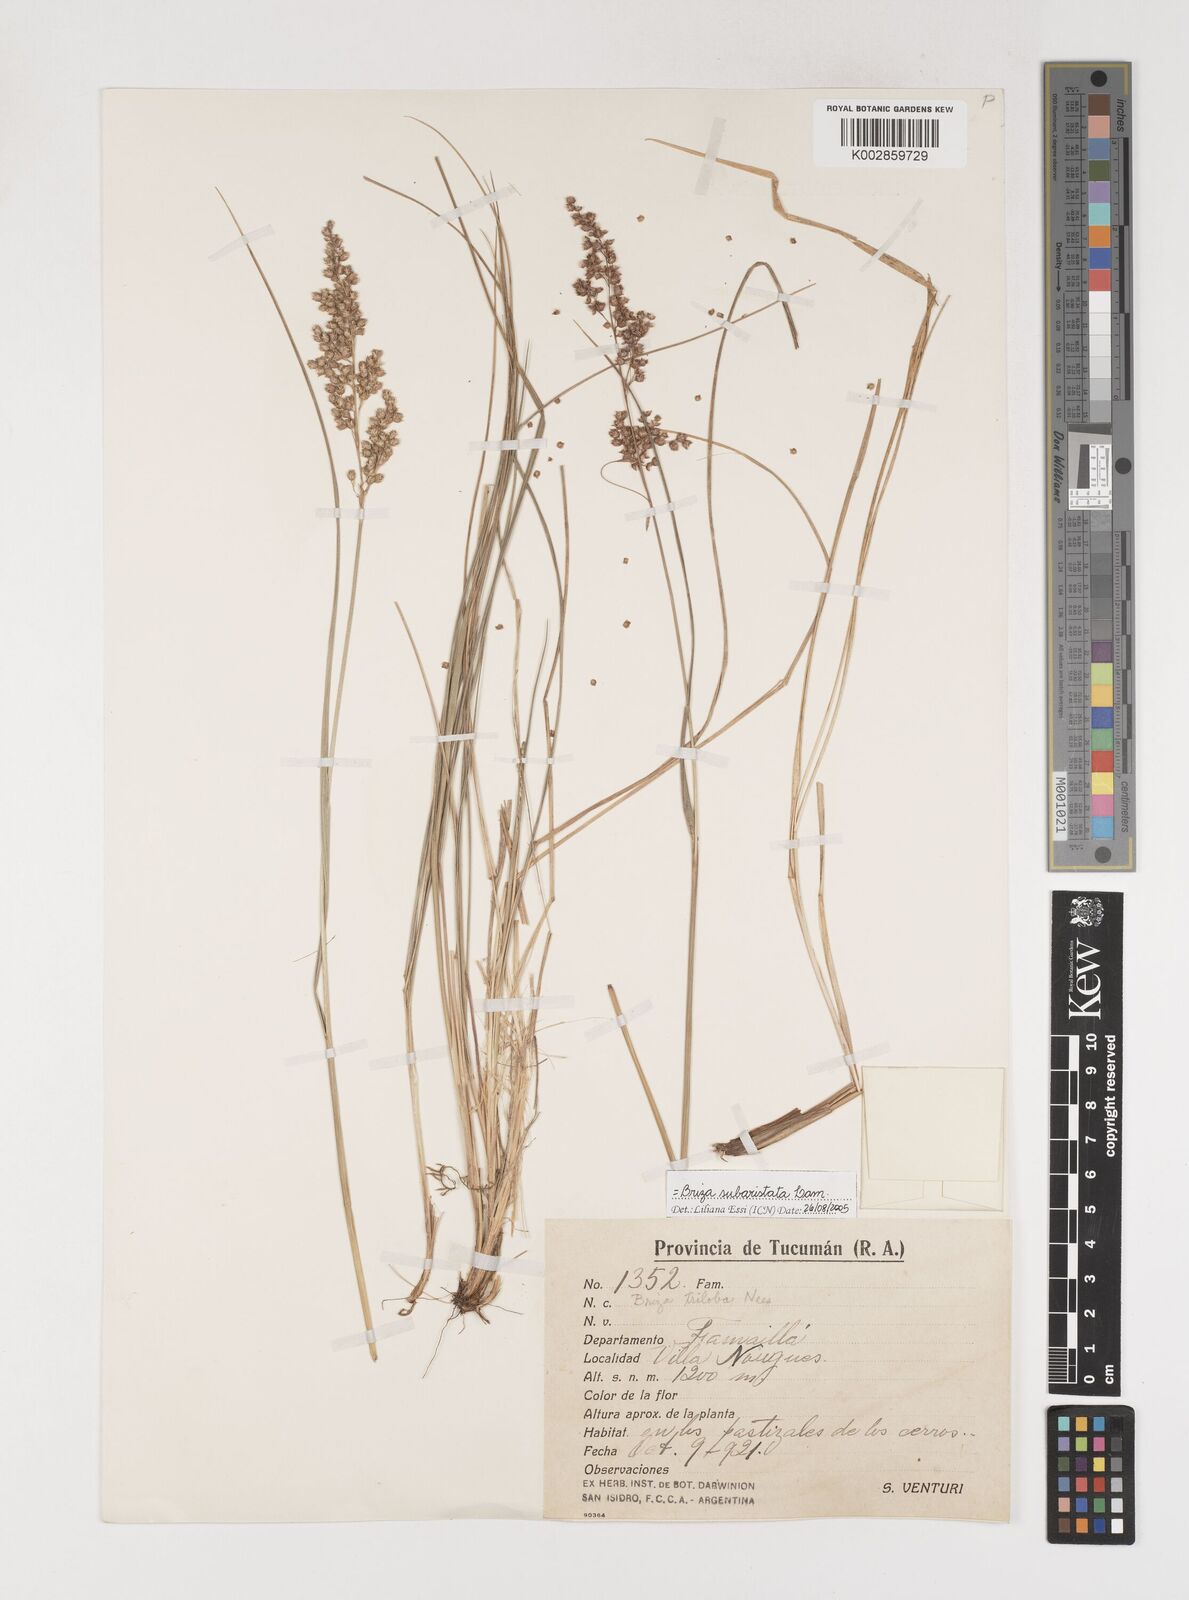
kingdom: Plantae
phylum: Tracheophyta
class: Liliopsida
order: Poales
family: Poaceae
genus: Chascolytrum
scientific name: Chascolytrum subaristatum
